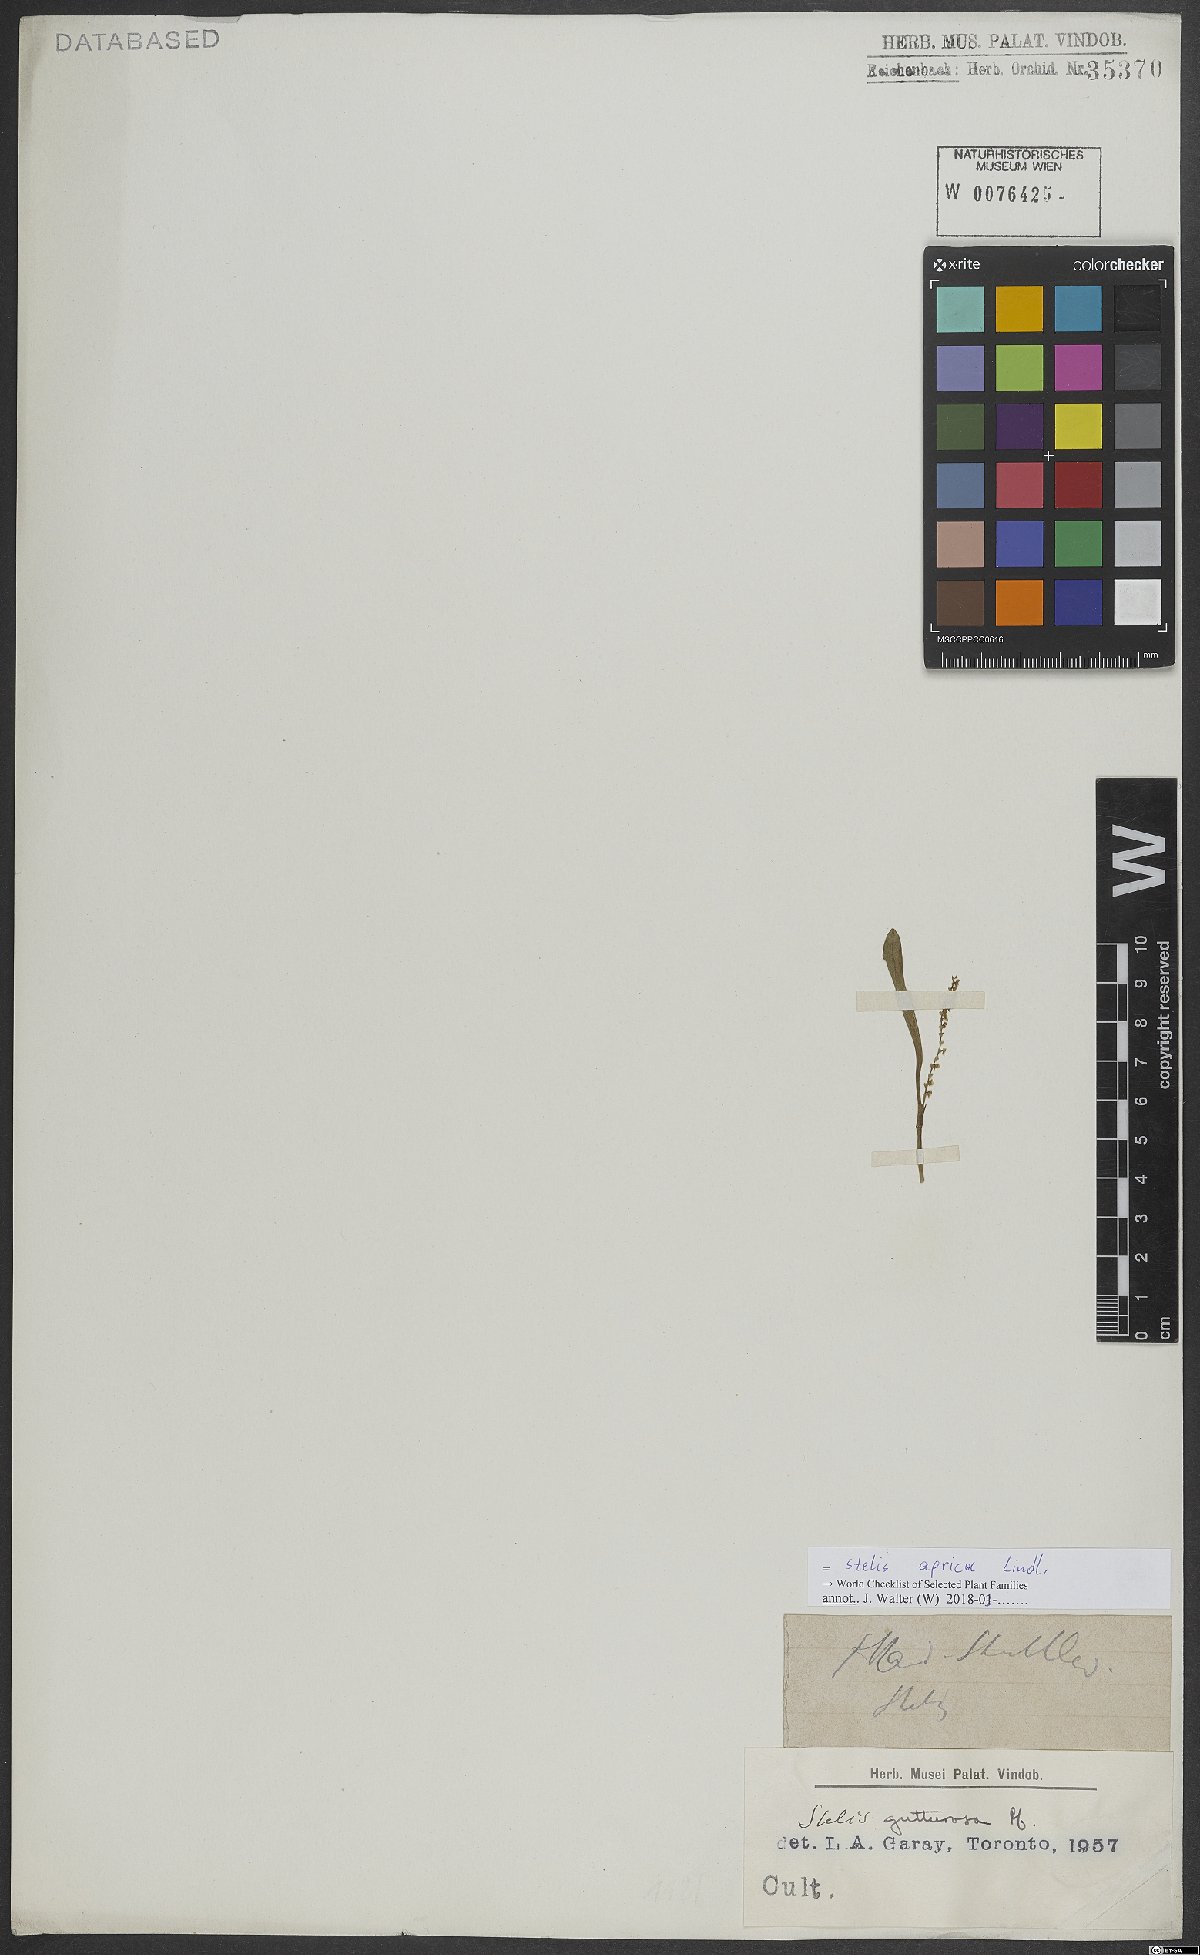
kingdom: Plantae
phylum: Tracheophyta
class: Liliopsida
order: Asparagales
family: Orchidaceae
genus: Stelis
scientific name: Stelis aprica
